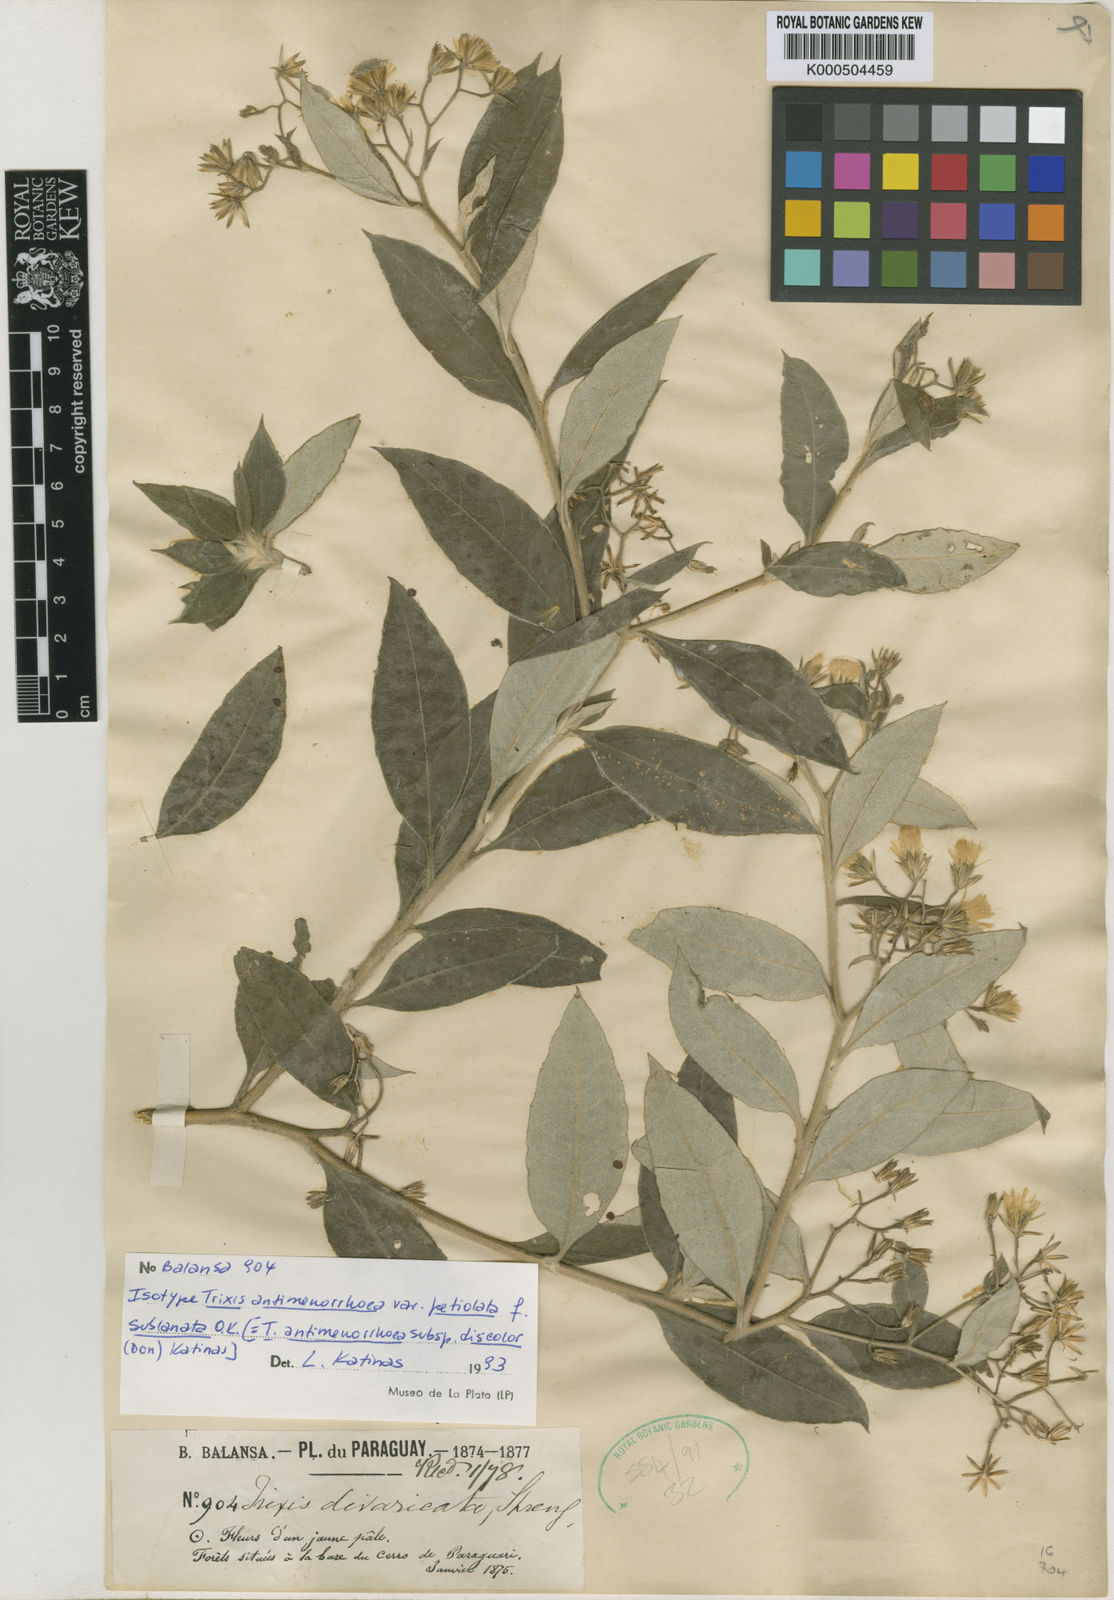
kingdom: Plantae
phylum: Tracheophyta
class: Magnoliopsida
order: Asterales
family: Asteraceae
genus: Trixis
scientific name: Trixis divaricata
